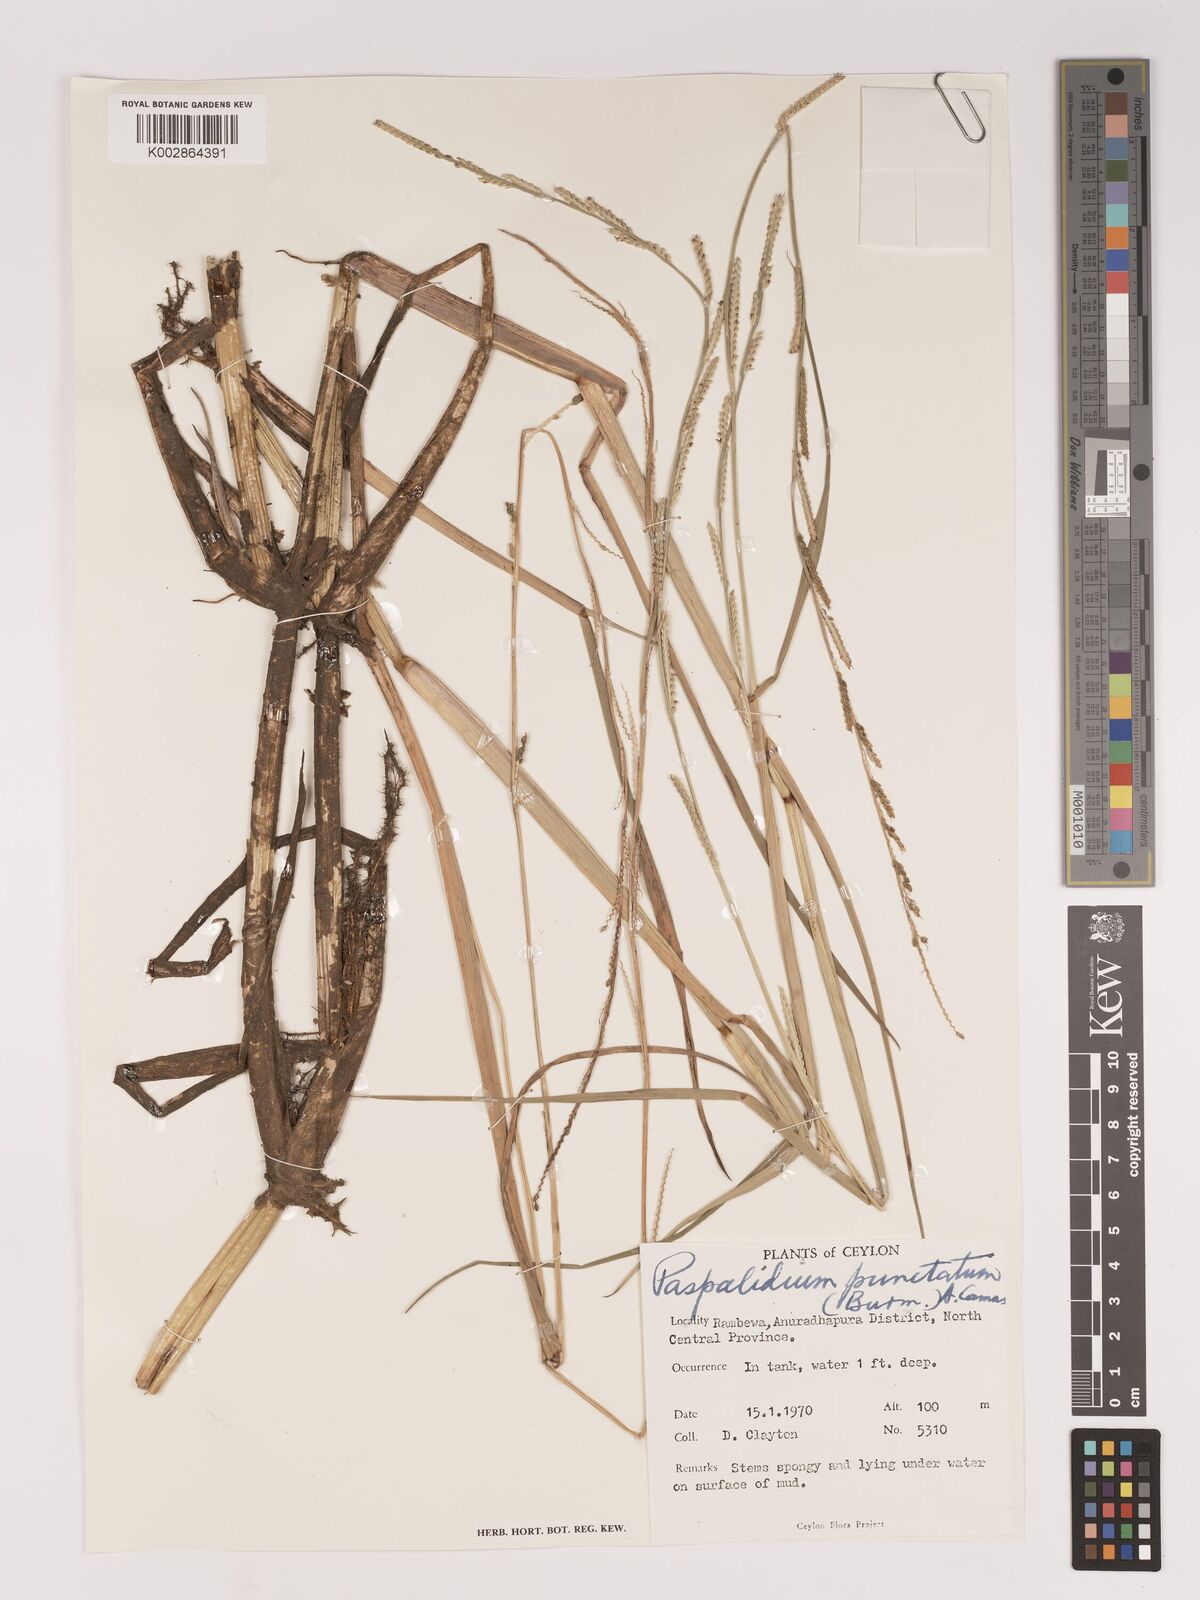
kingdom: Plantae
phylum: Tracheophyta
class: Liliopsida
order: Poales
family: Poaceae
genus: Setaria
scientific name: Setaria punctata
